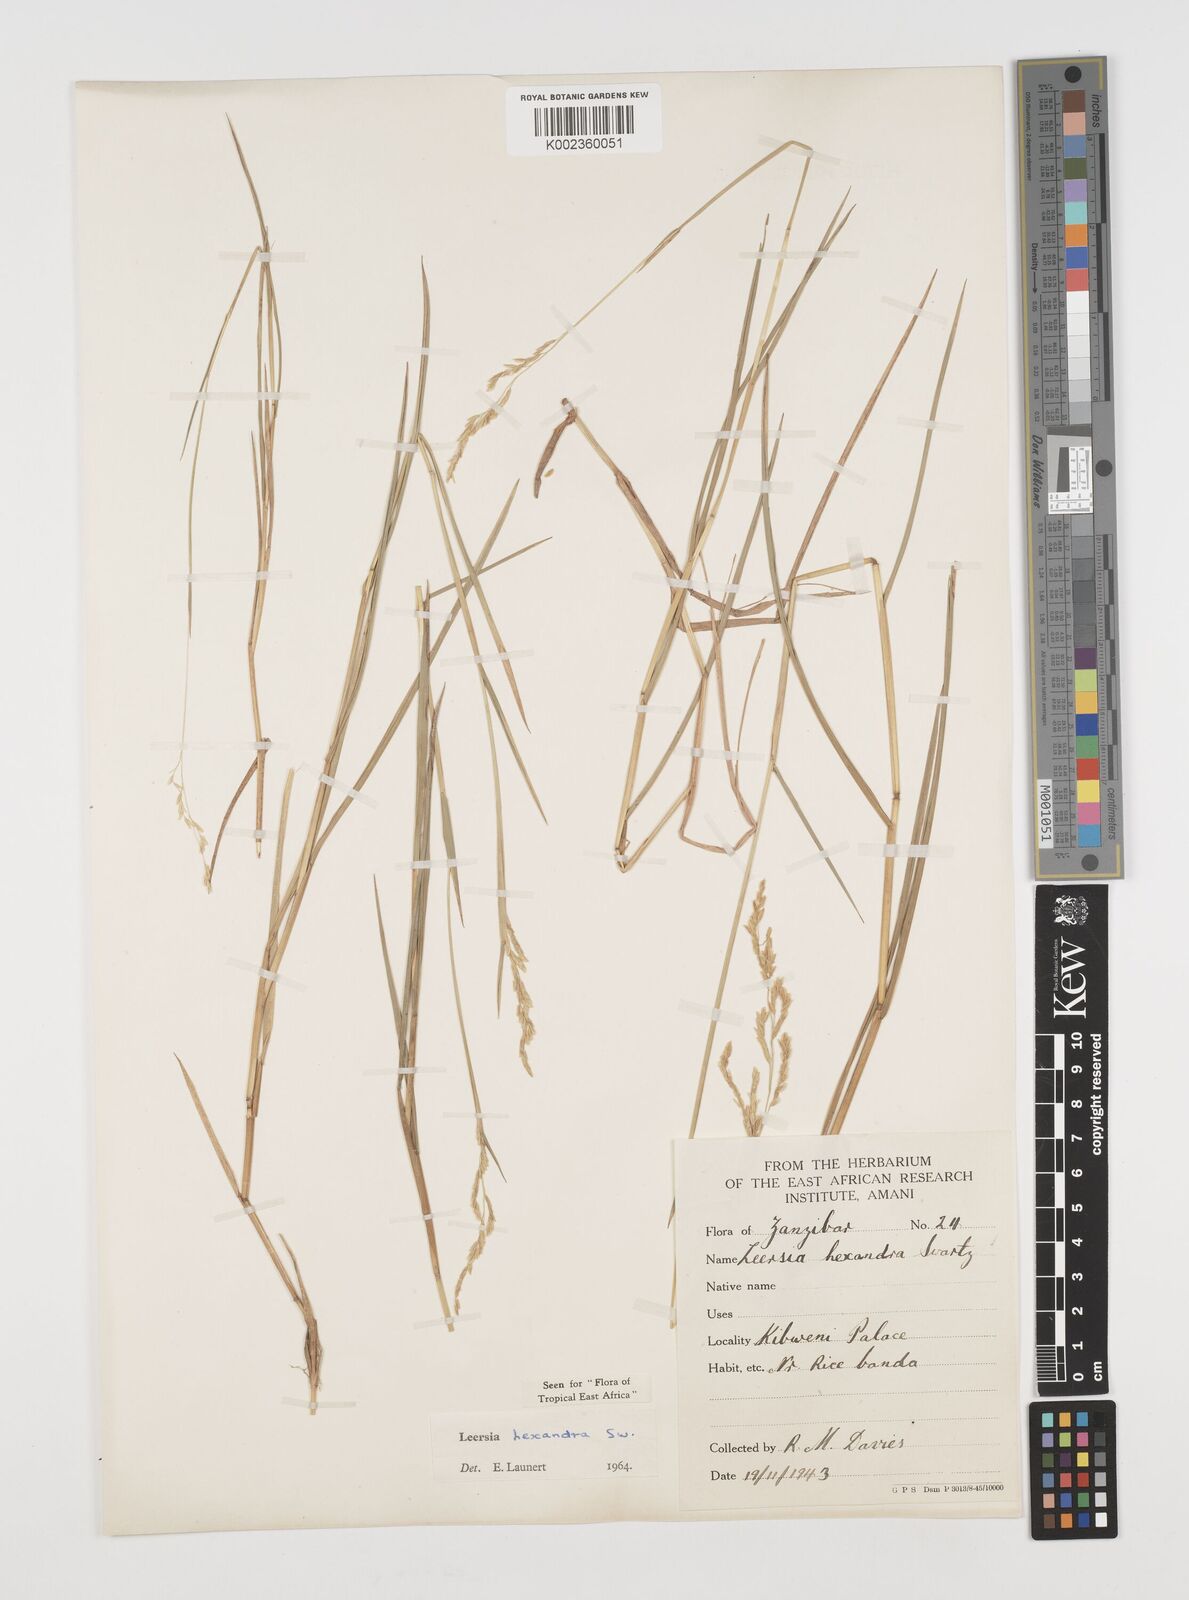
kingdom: Plantae
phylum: Tracheophyta
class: Liliopsida
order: Poales
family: Poaceae
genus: Leersia
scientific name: Leersia hexandra
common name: Southern cut grass
